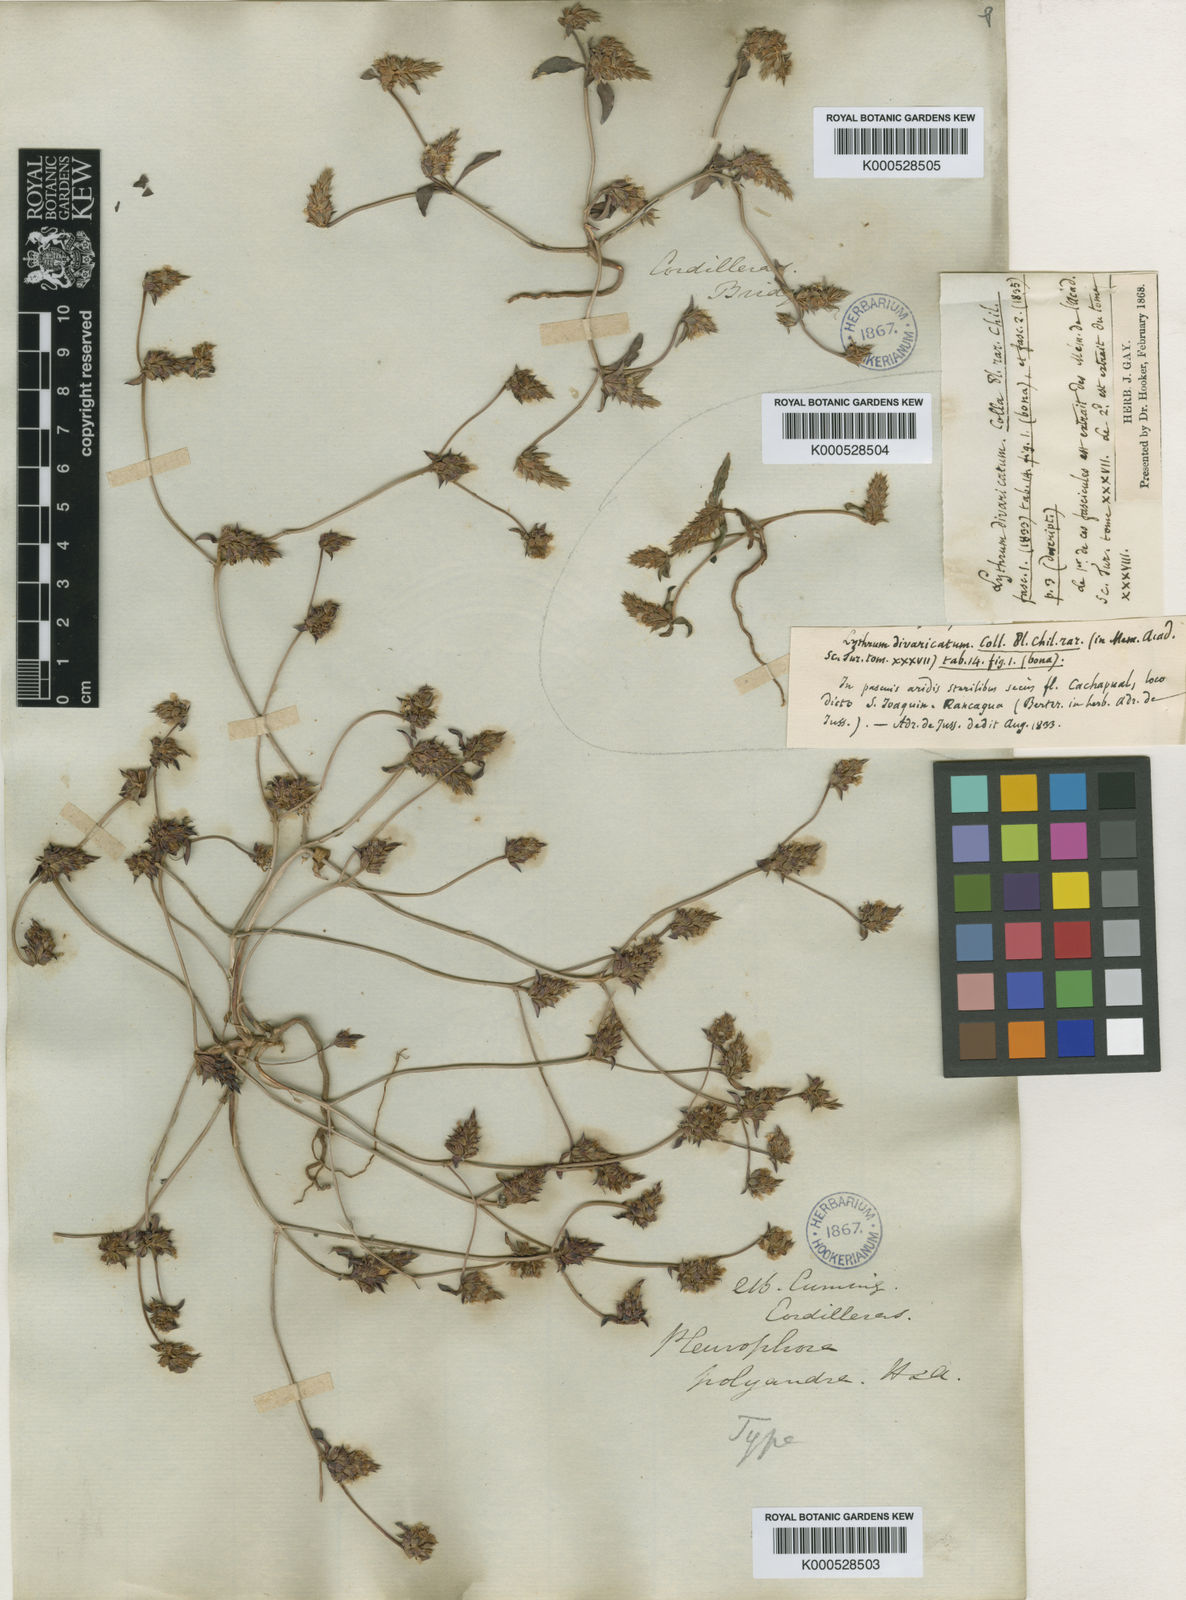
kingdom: Plantae
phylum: Tracheophyta
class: Magnoliopsida
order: Myrtales
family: Lythraceae
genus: Pleurophora
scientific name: Pleurophora polyandra
